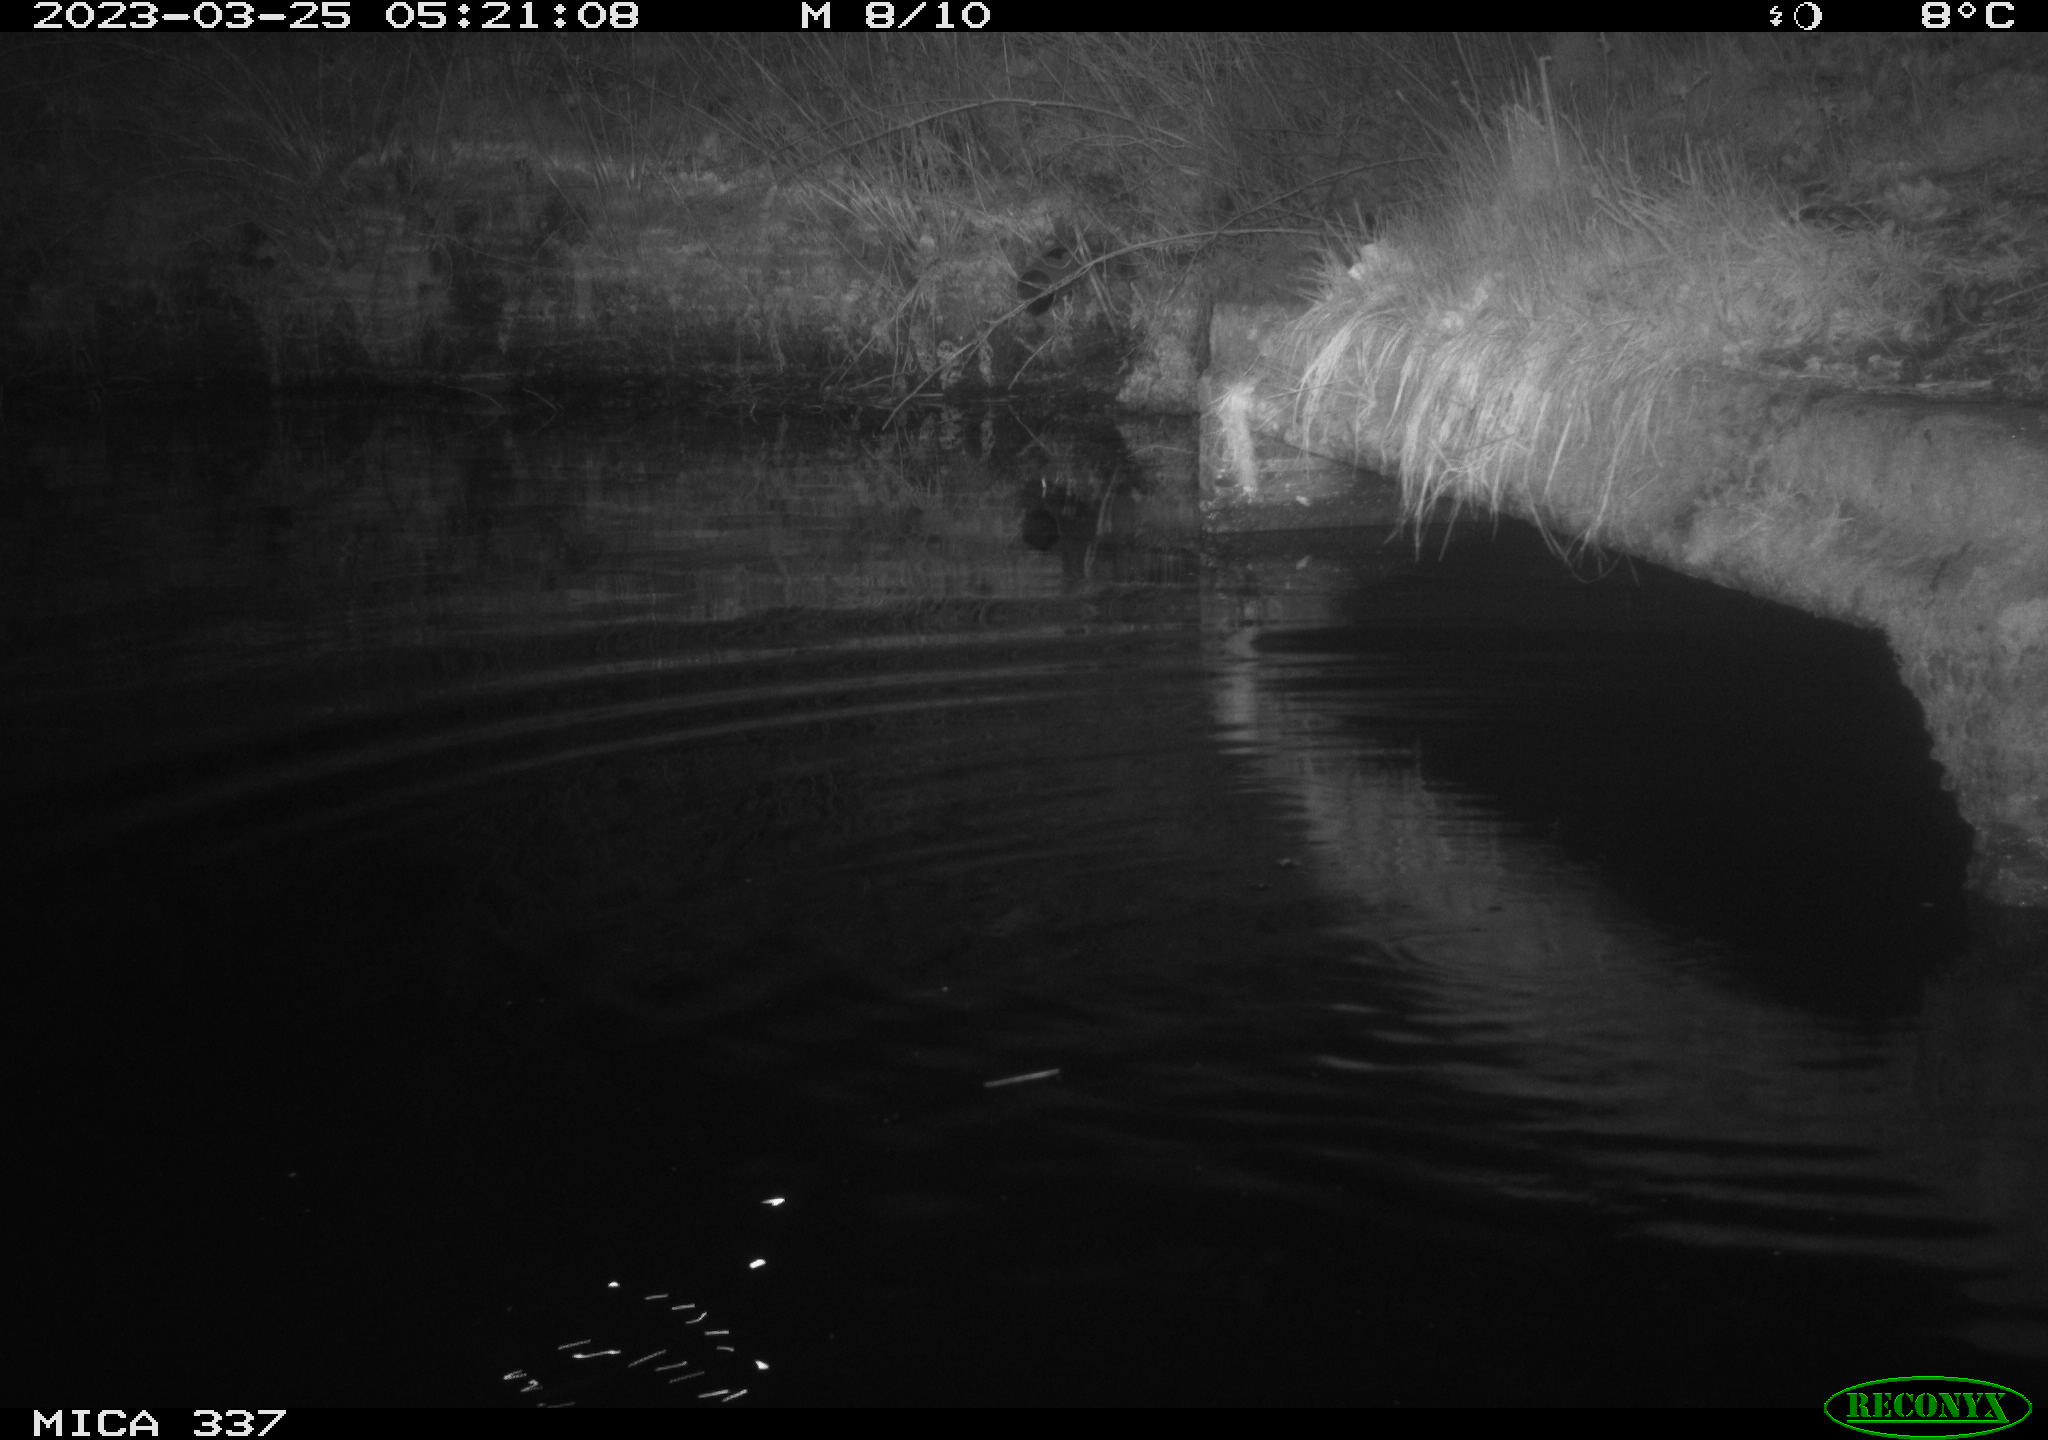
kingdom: Animalia
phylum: Chordata
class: Mammalia
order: Rodentia
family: Muridae
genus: Rattus
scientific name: Rattus norvegicus
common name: Brown rat
